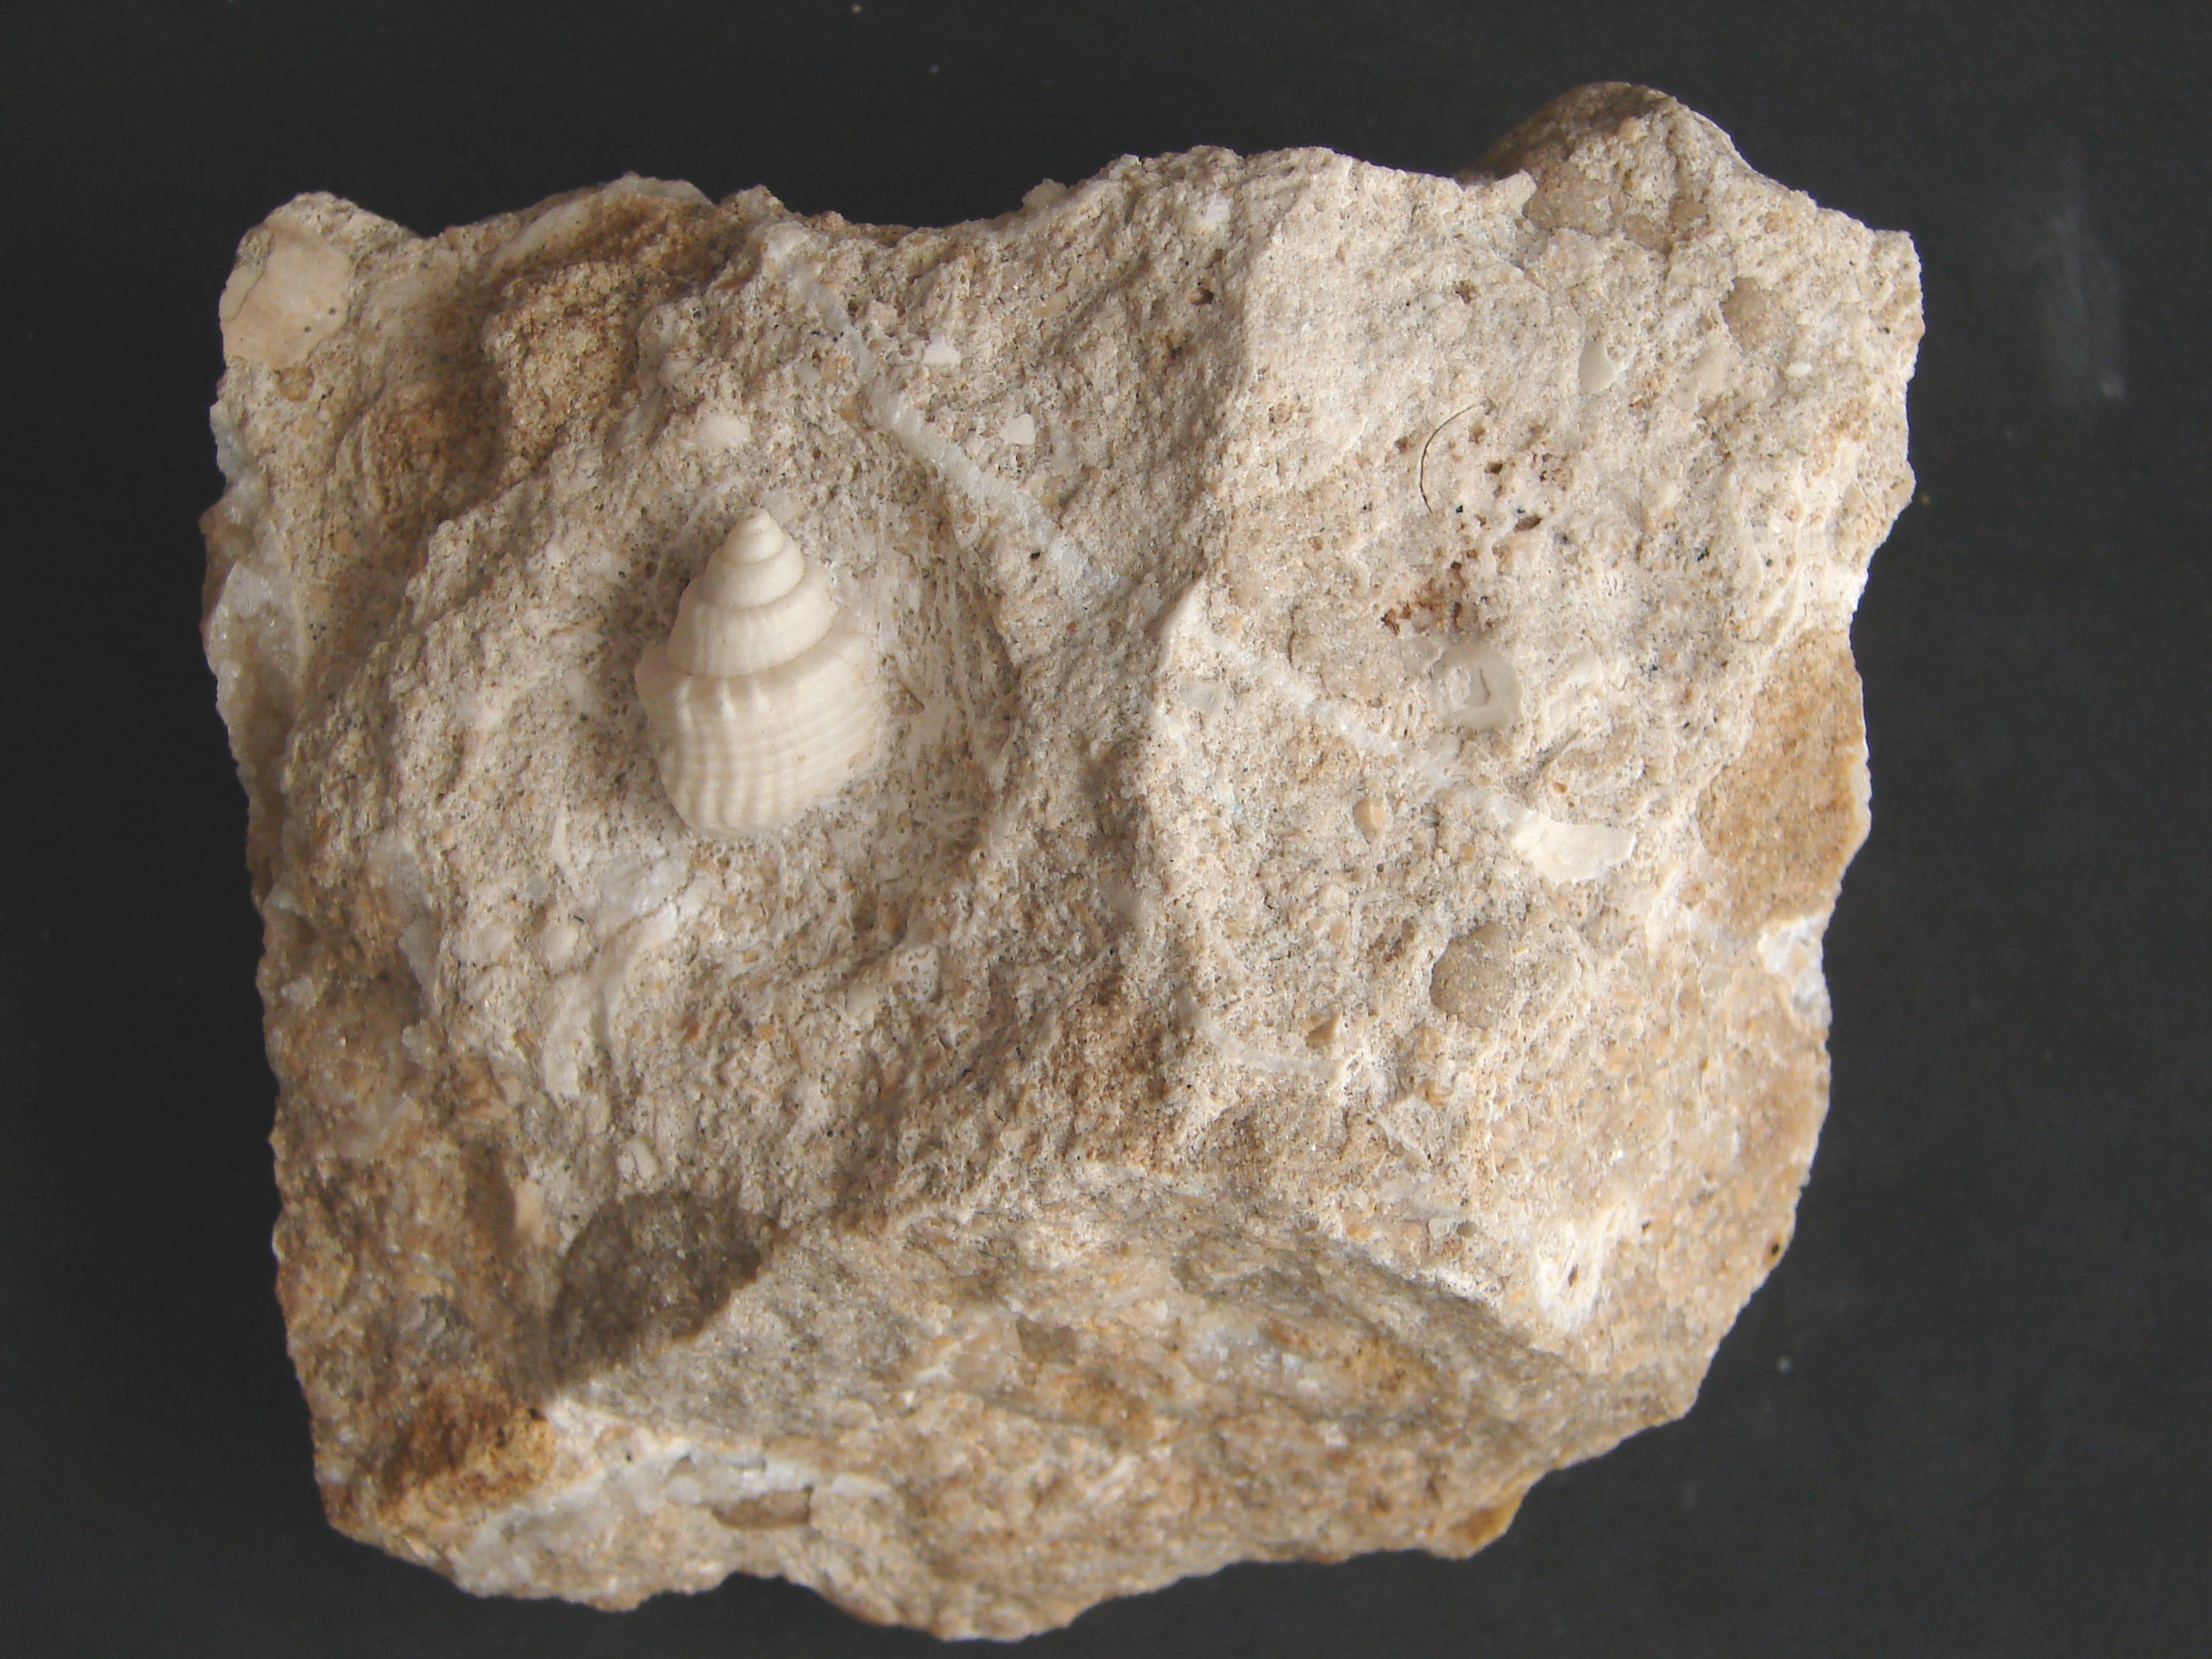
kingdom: Animalia
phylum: Mollusca
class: Gastropoda
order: Neogastropoda
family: Purpurinidae
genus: Microschiza
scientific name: Microschiza Turbo semiornatus
